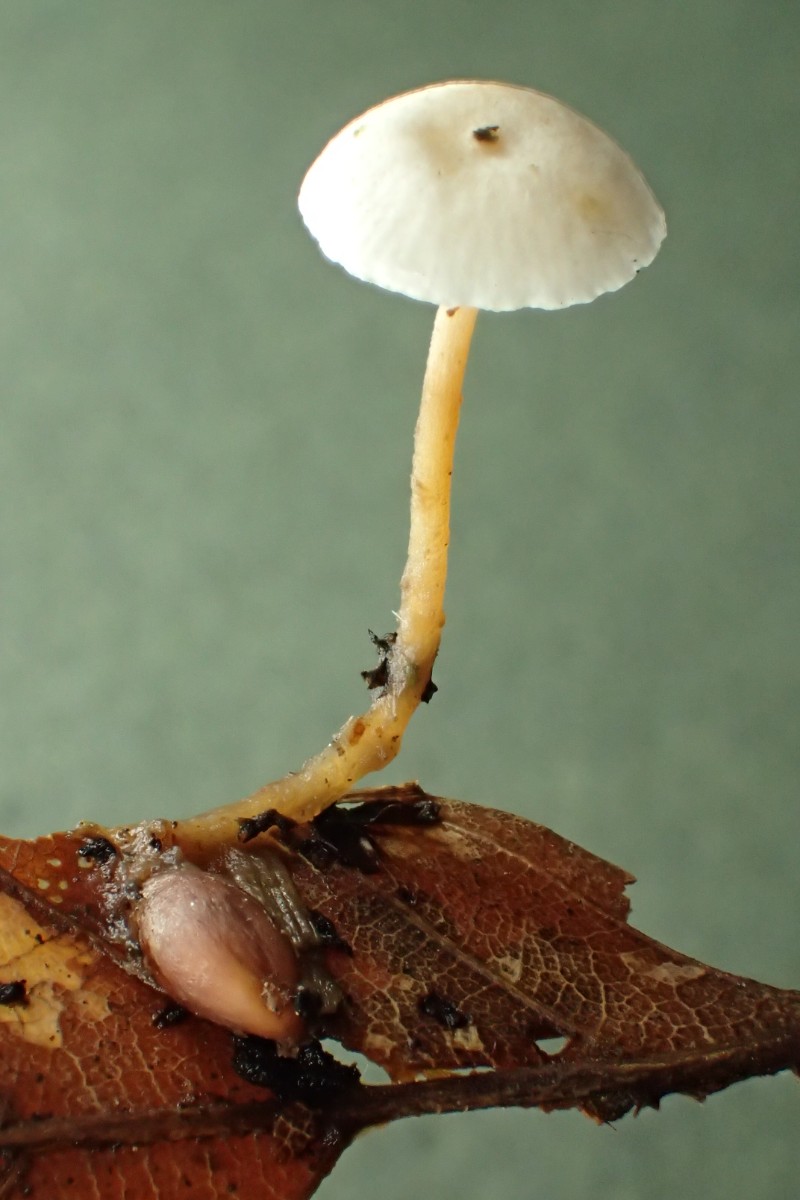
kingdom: Fungi
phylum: Basidiomycota
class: Agaricomycetes
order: Agaricales
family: Tricholomataceae
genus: Collybia
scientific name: Collybia tuberosa
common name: spidsknoldet lighat
